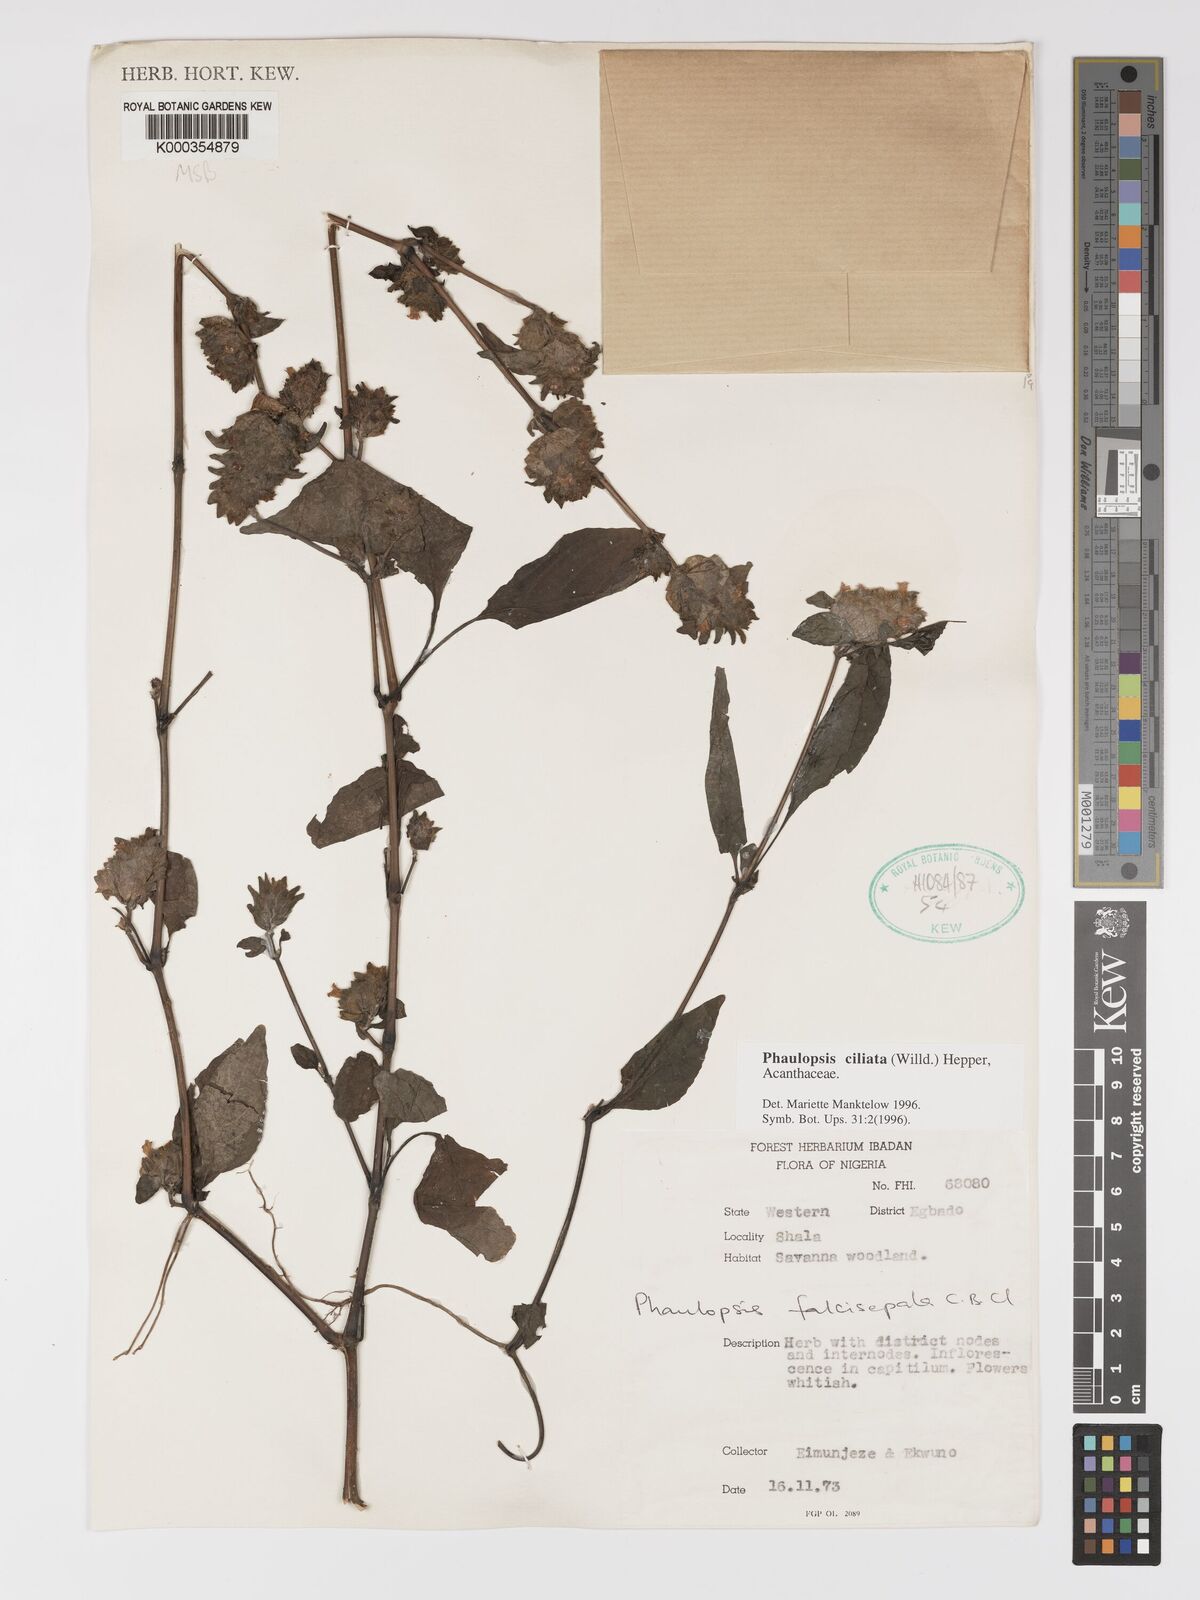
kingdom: Plantae
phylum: Tracheophyta
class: Magnoliopsida
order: Lamiales
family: Acanthaceae
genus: Phaulopsis
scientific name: Phaulopsis ciliata
